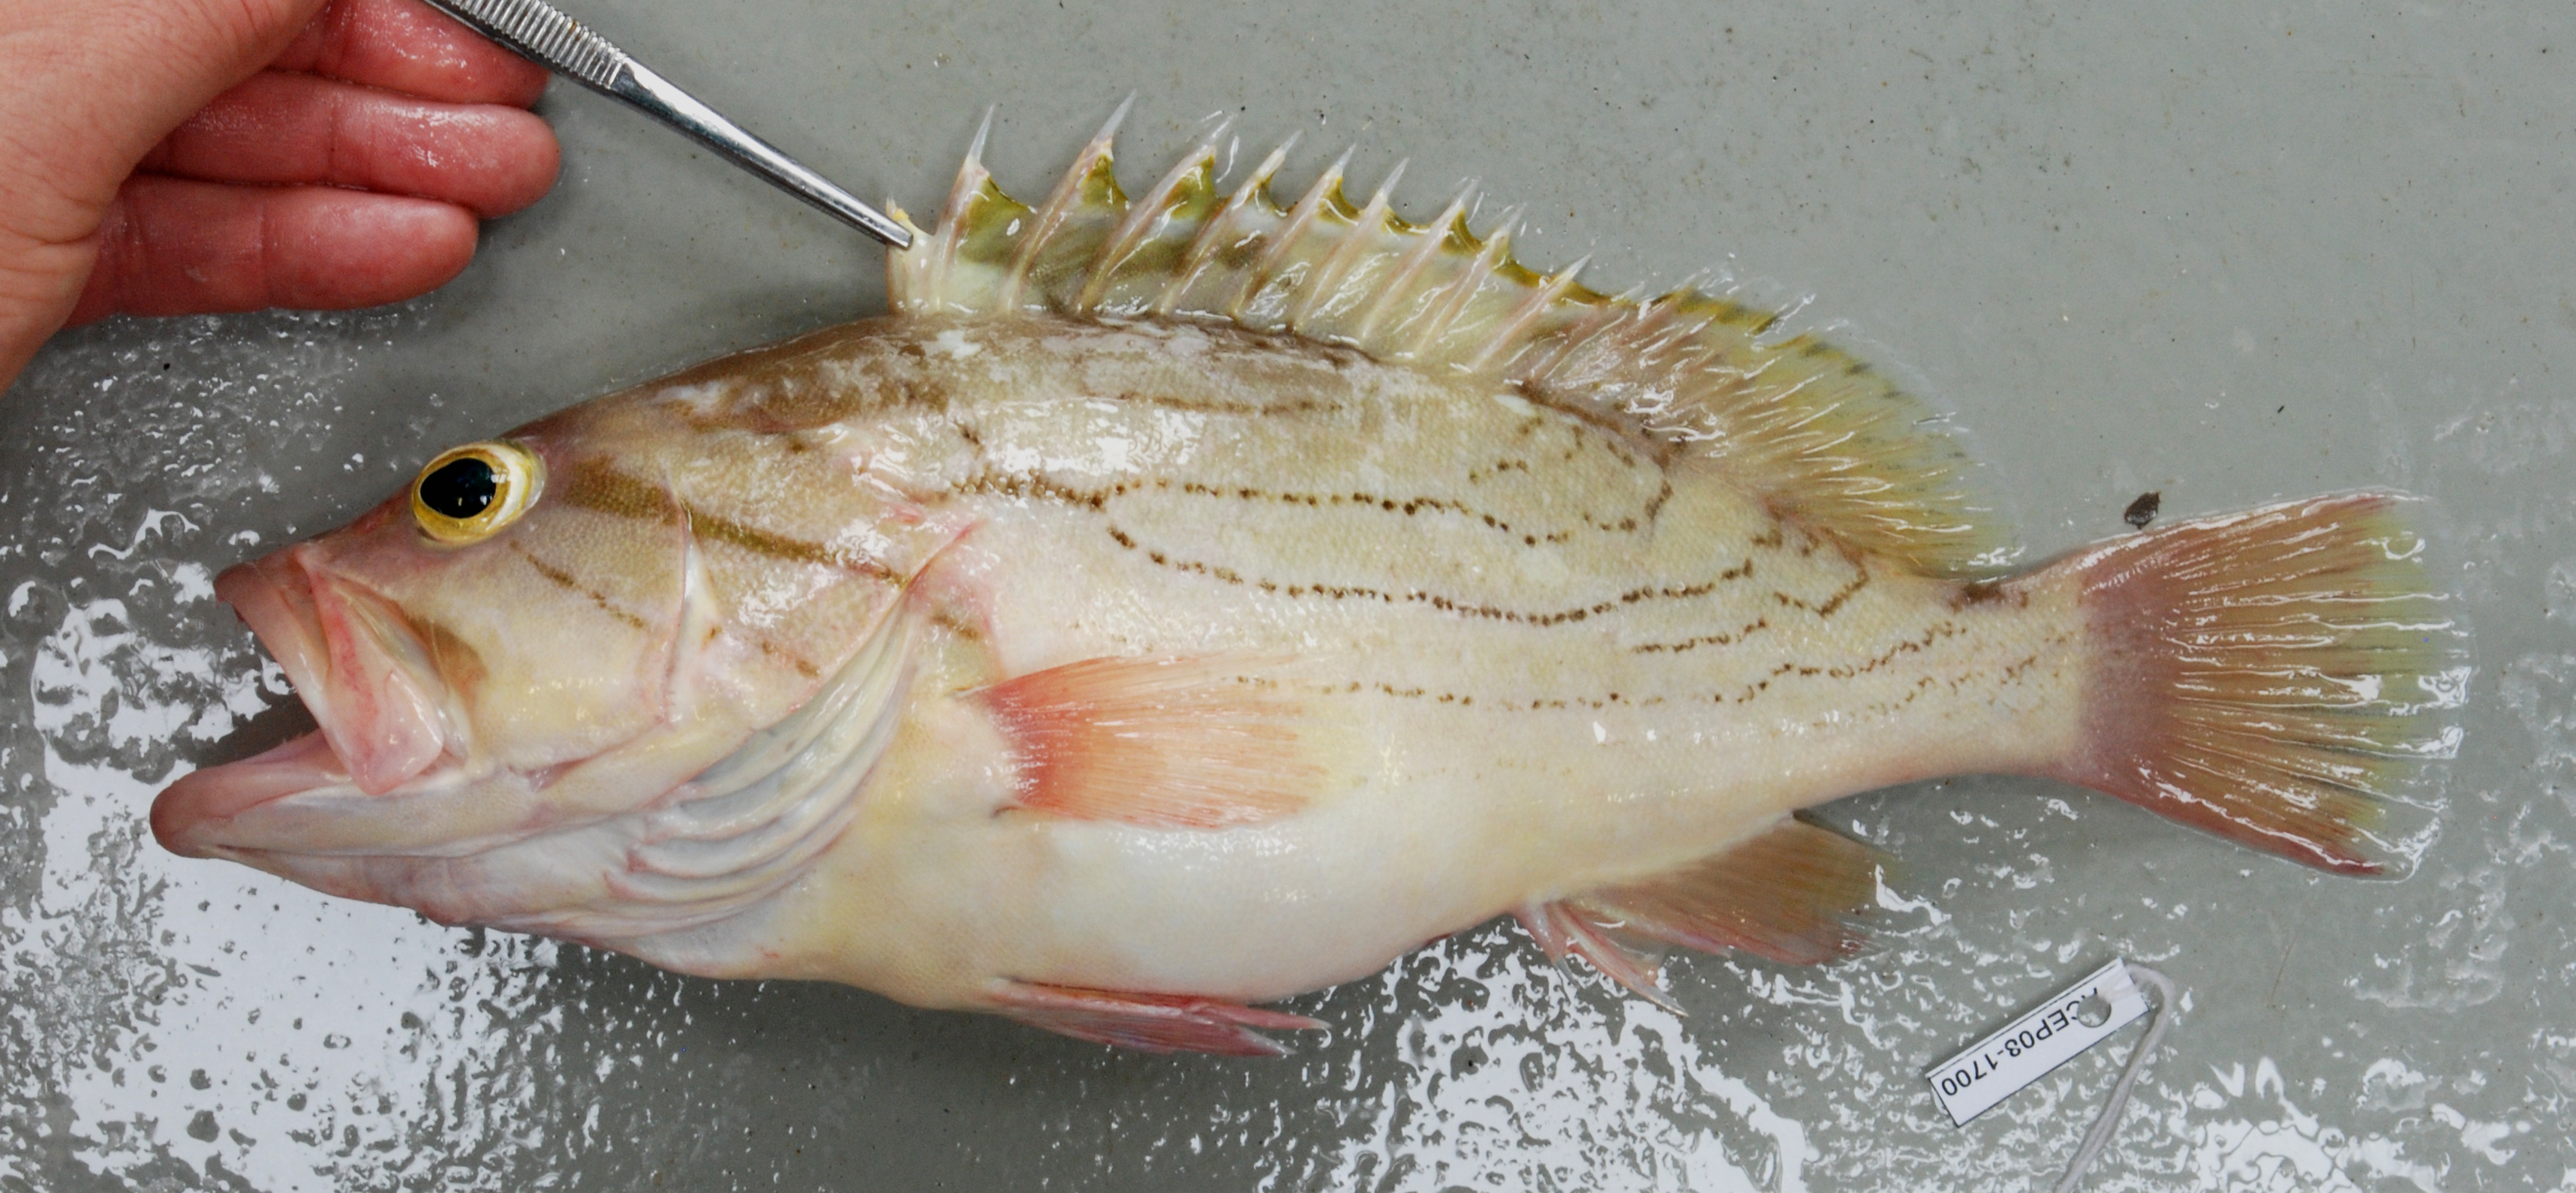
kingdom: Animalia
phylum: Chordata
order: Perciformes
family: Serranidae
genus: Epinephelus
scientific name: Epinephelus poecilonotus
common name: Dot-dash grouper
